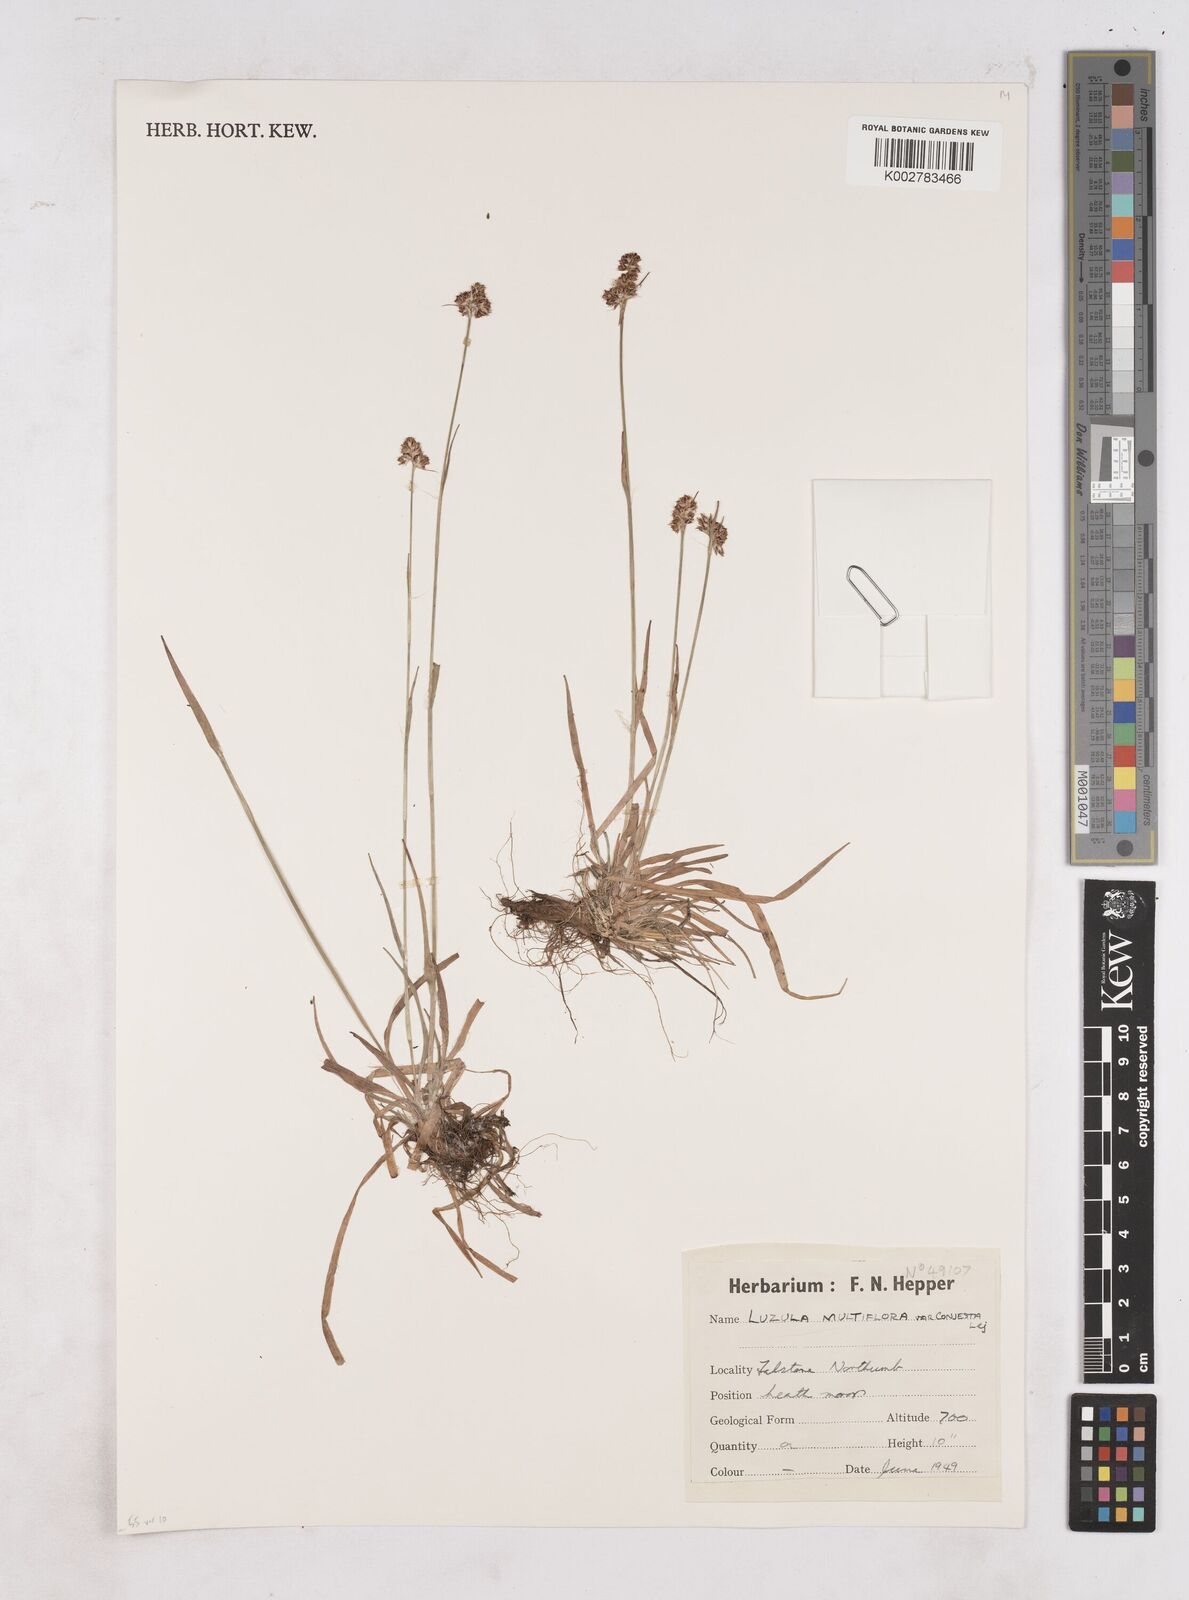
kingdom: Plantae
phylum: Tracheophyta
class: Liliopsida
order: Poales
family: Juncaceae
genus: Luzula
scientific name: Luzula campestris
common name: Field wood-rush
